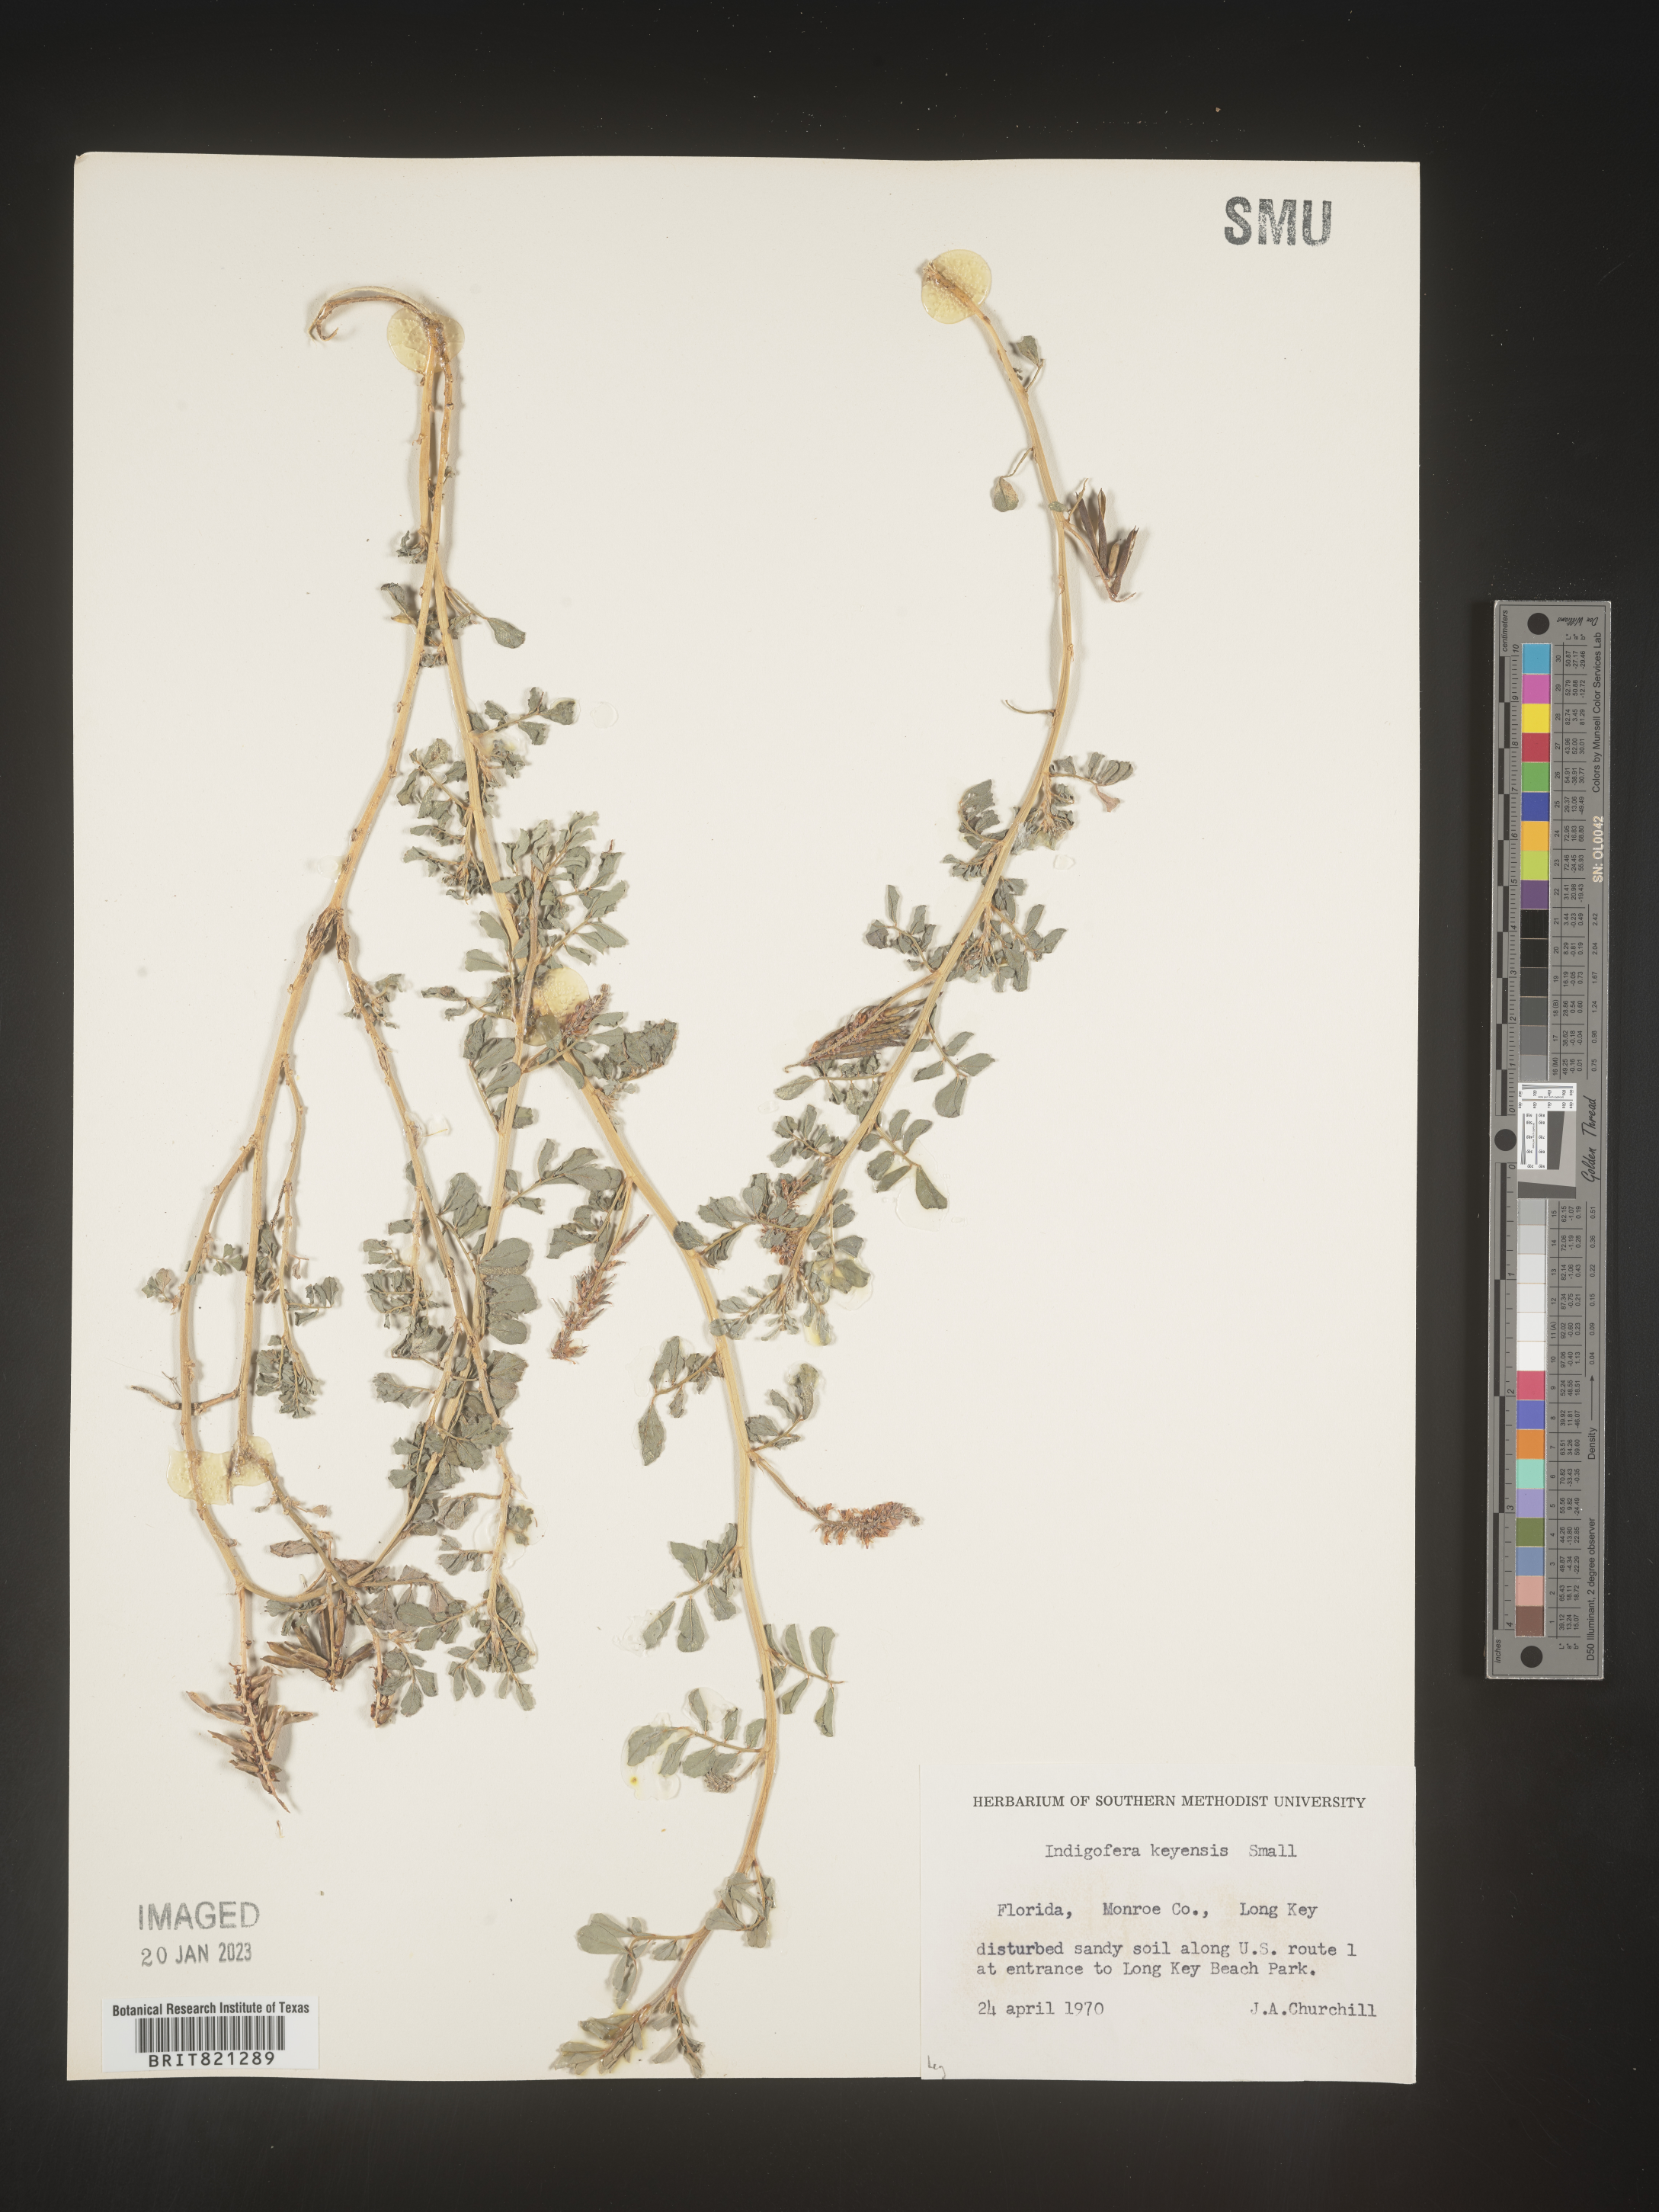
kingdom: Plantae
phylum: Tracheophyta
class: Magnoliopsida
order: Fabales
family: Fabaceae
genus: Indigofera
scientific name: Indigofera
